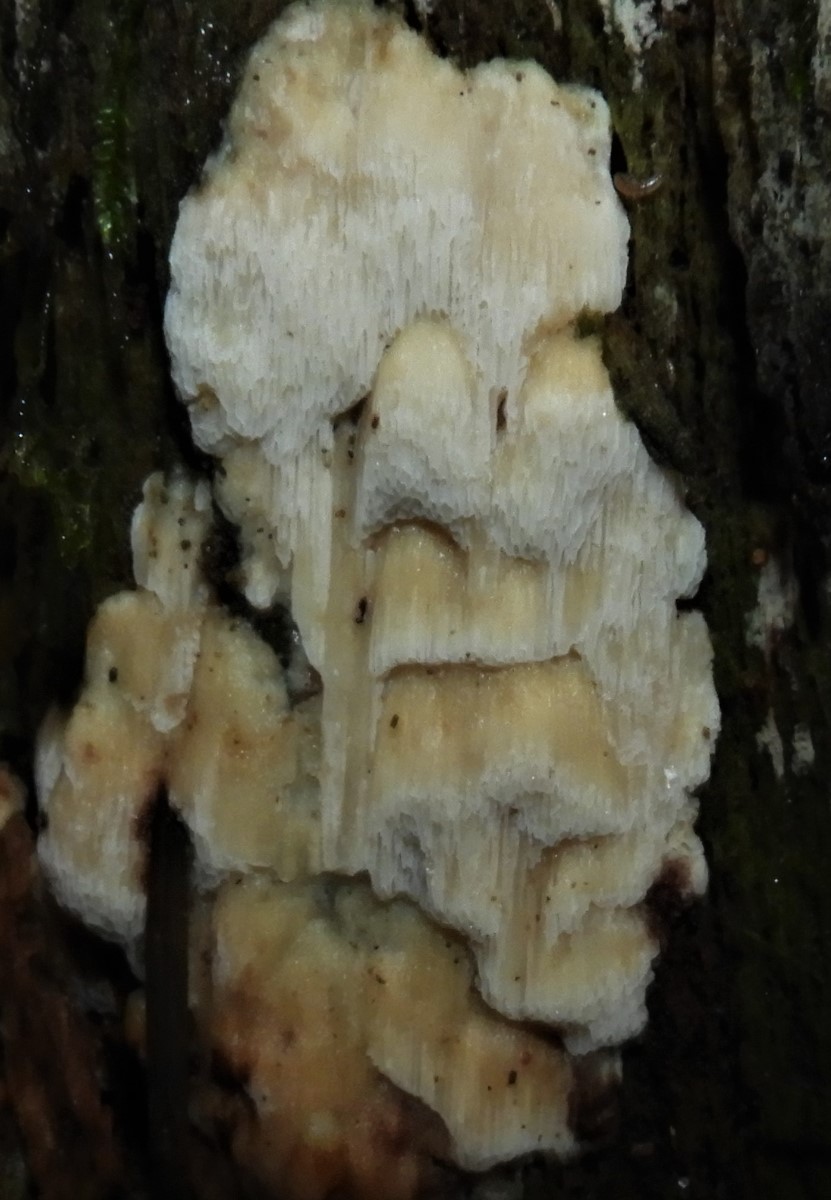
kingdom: Fungi
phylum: Basidiomycota
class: Agaricomycetes
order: Polyporales
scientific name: Polyporales
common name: poresvampordenen
